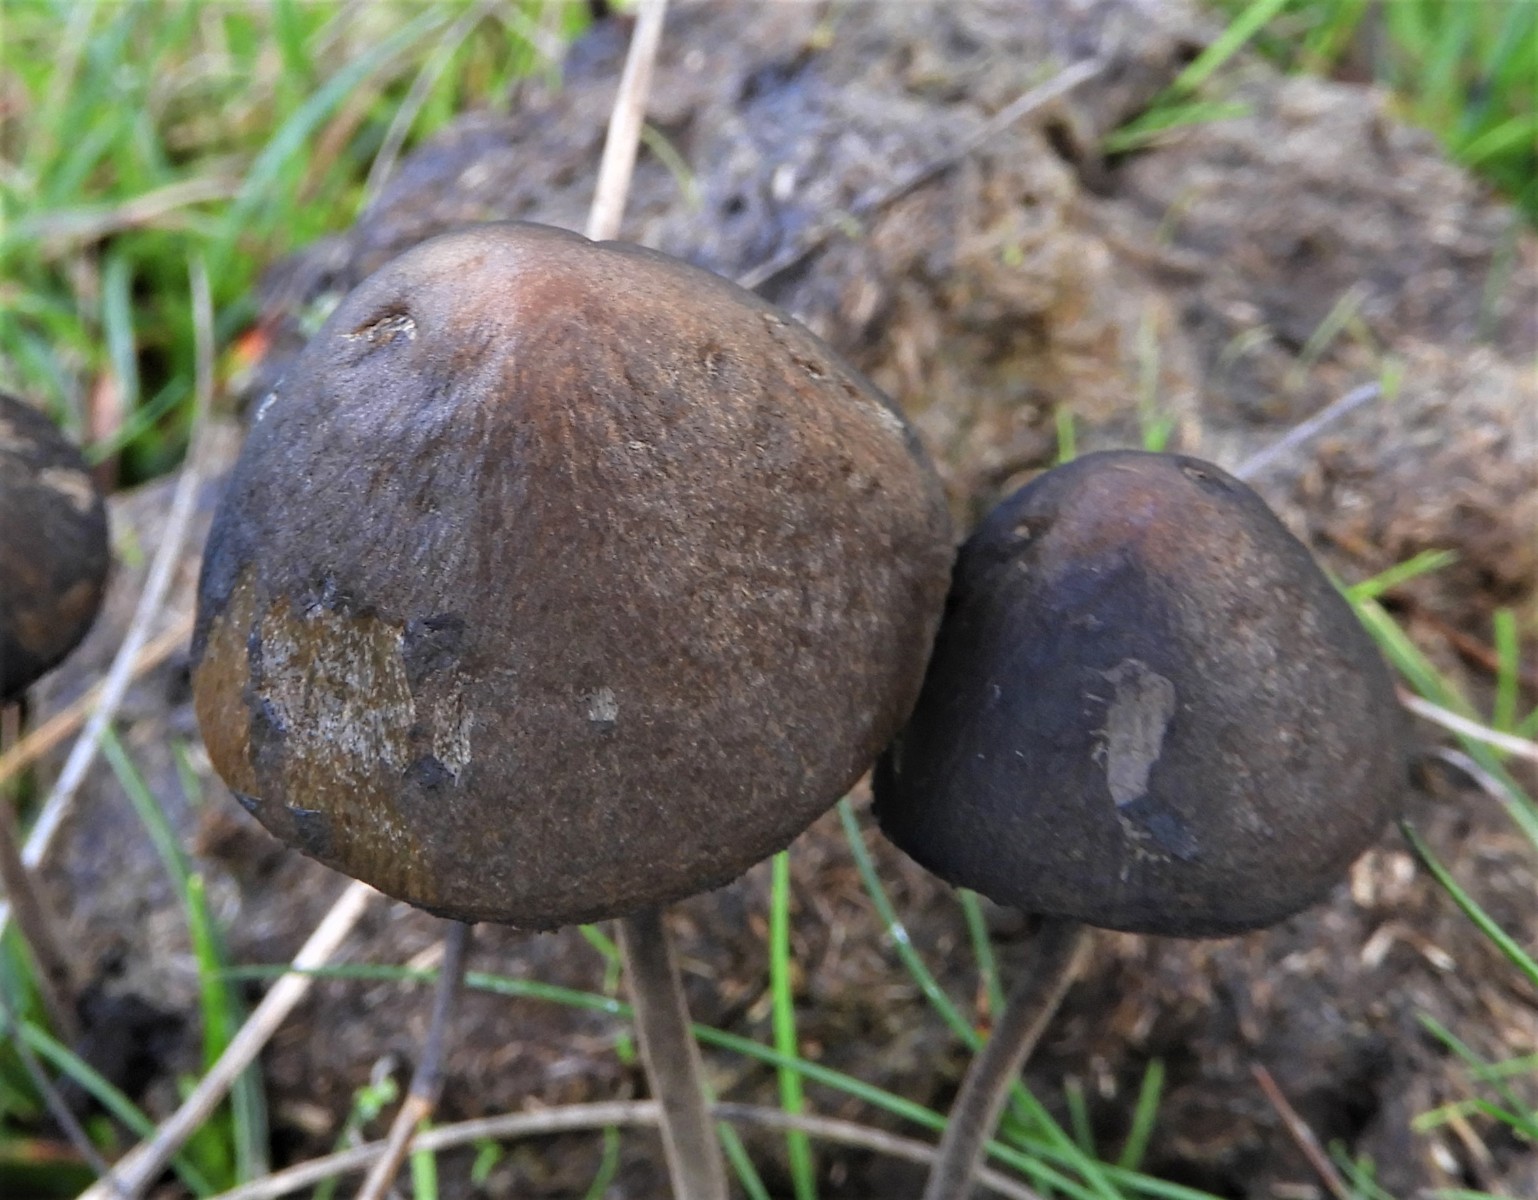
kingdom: Fungi
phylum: Basidiomycota
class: Agaricomycetes
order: Agaricales
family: Bolbitiaceae
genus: Panaeolus
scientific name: Panaeolus acuminatus
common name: høj glanshat
